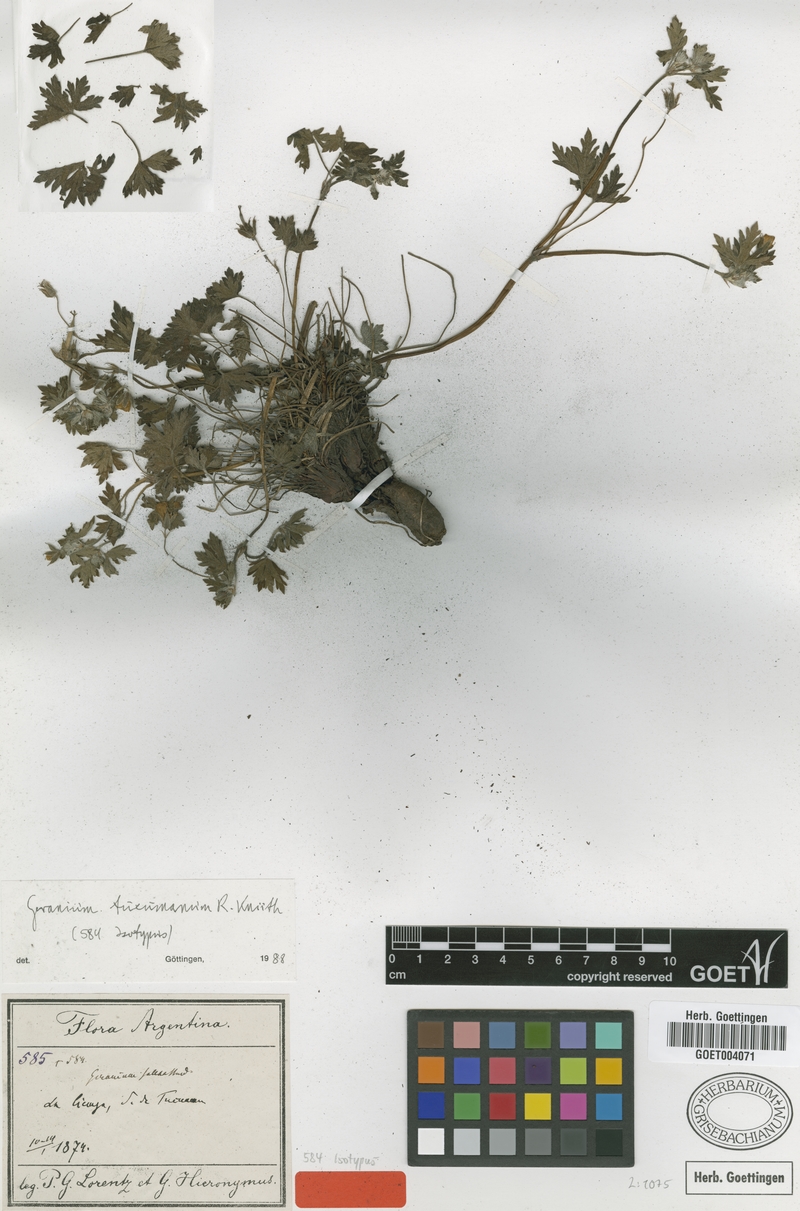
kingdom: Plantae
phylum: Tracheophyta
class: Magnoliopsida
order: Geraniales
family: Geraniaceae
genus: Geranium
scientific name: Geranium sessiliflorum
